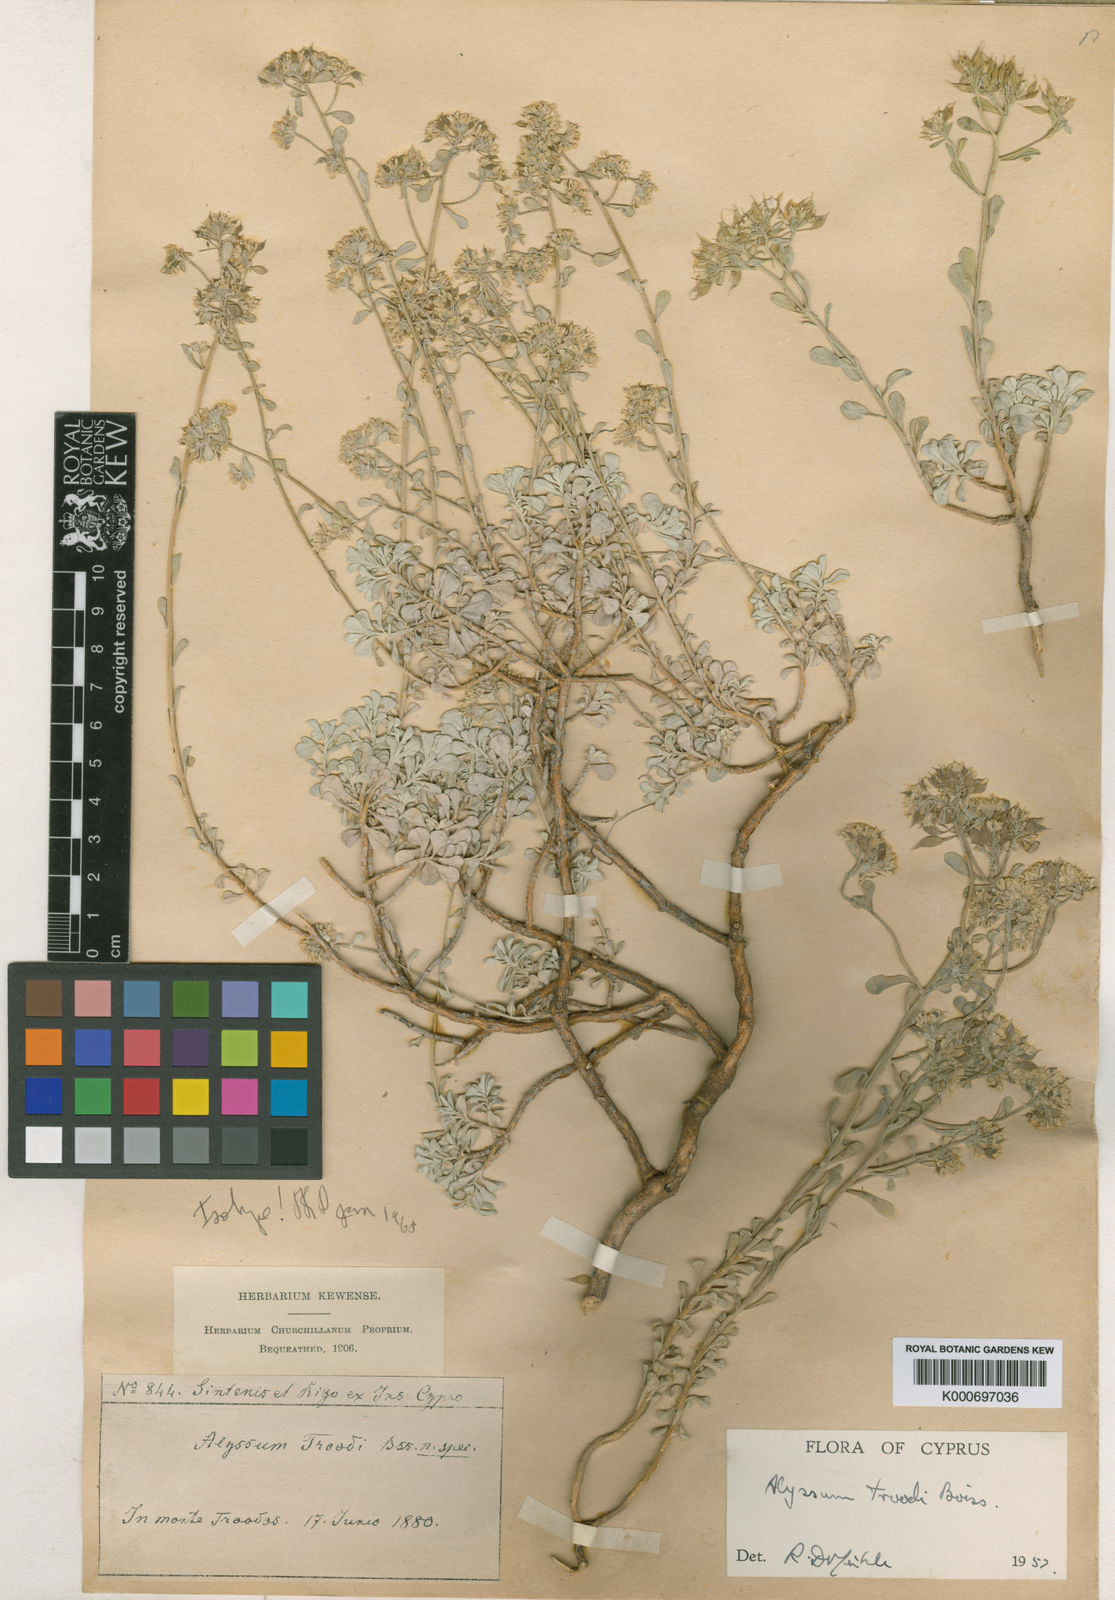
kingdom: Plantae
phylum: Tracheophyta
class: Magnoliopsida
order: Brassicales
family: Brassicaceae
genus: Odontarrhena
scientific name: Odontarrhena troodi
